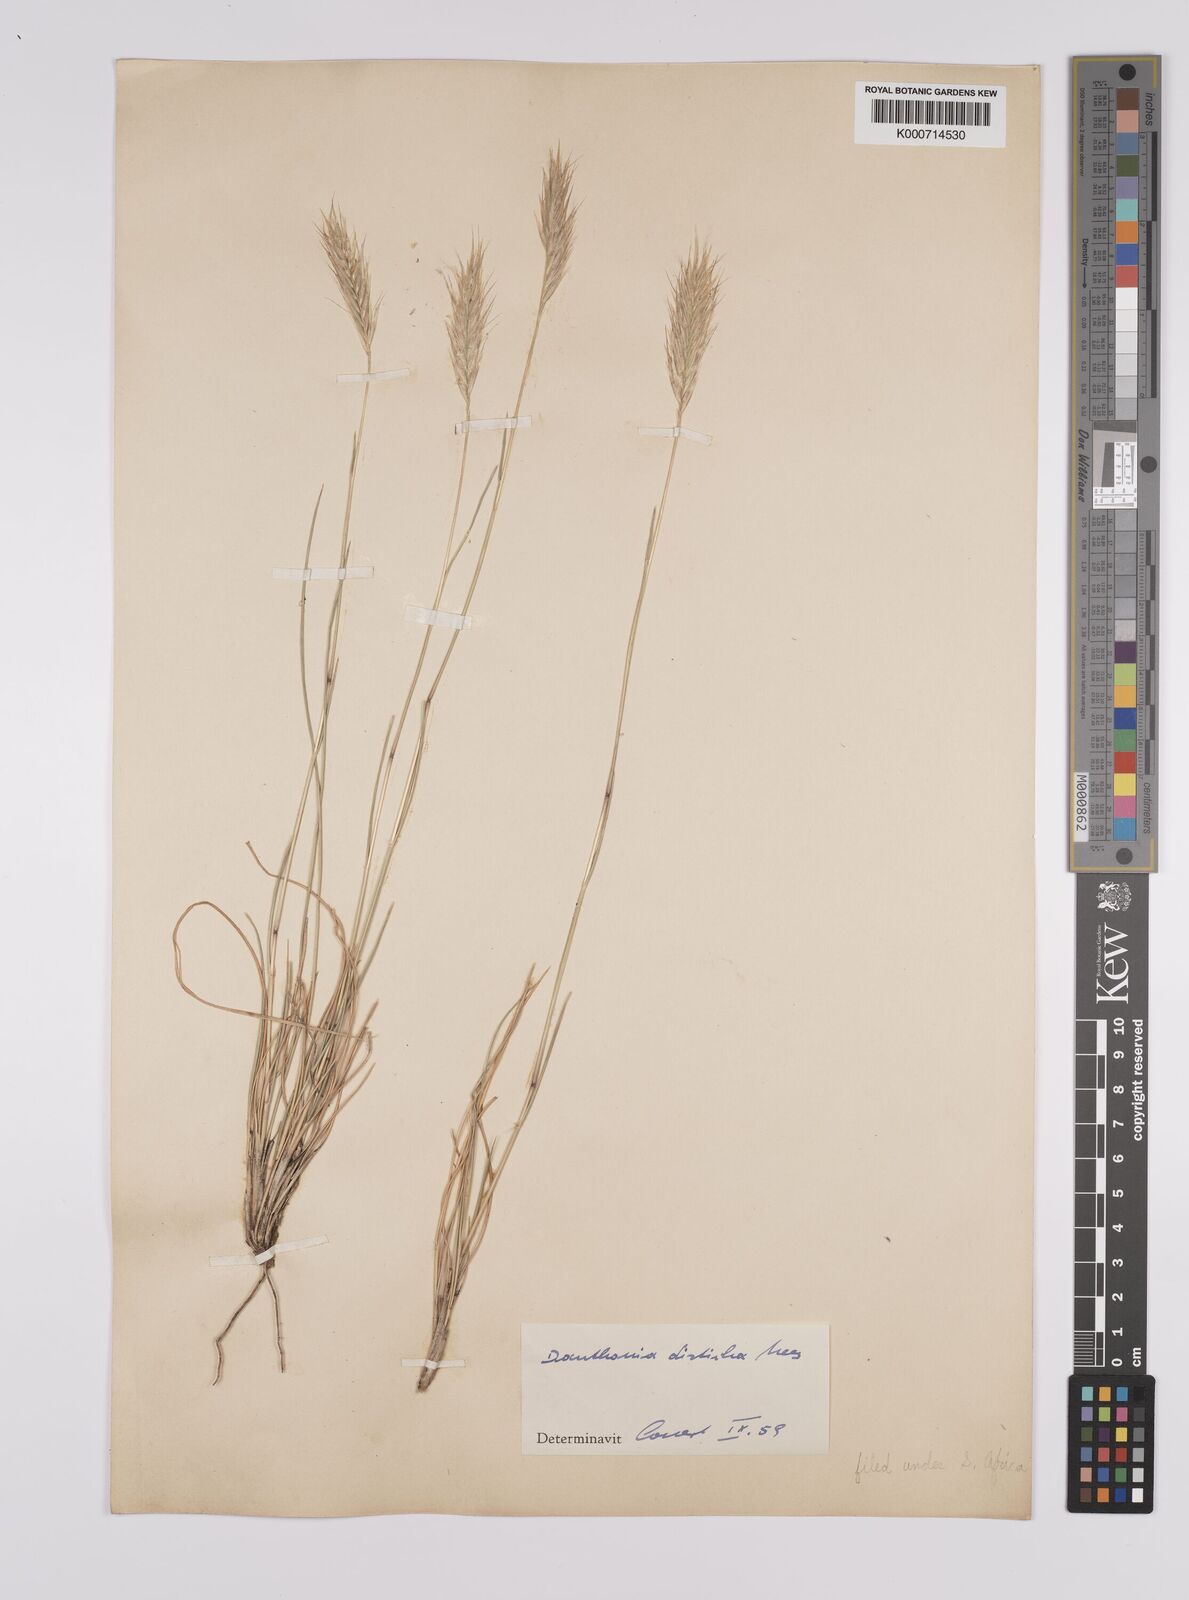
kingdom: Plantae
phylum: Tracheophyta
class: Liliopsida
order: Poales
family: Poaceae
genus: Tenaxia
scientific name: Tenaxia disticha
